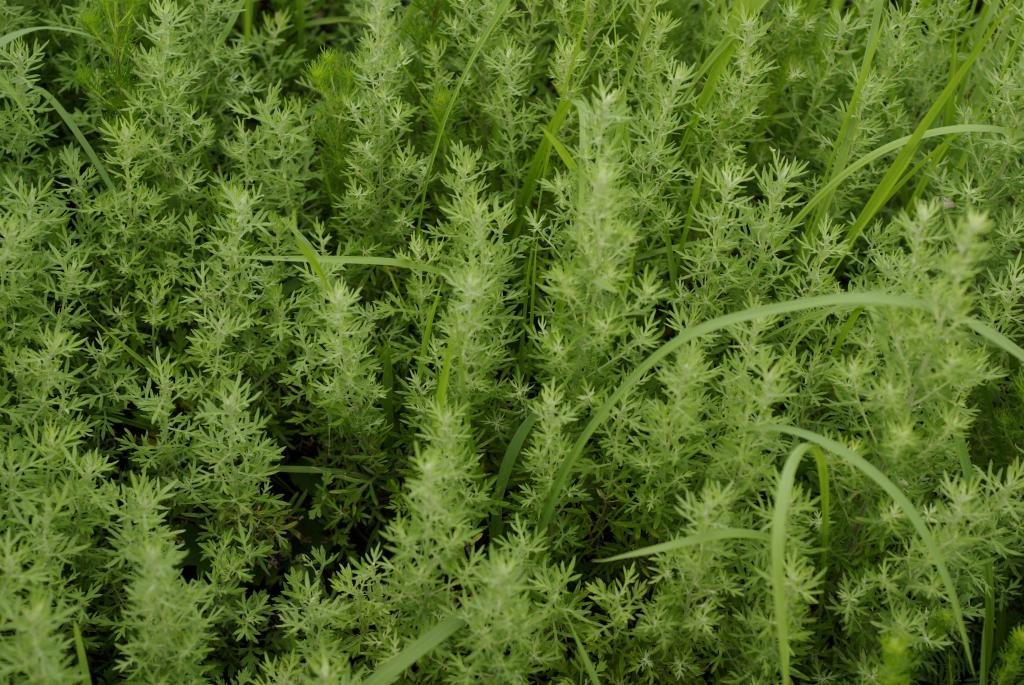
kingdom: Plantae
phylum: Tracheophyta
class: Magnoliopsida
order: Asterales
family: Asteraceae
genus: Artemisia
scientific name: Artemisia lancea
